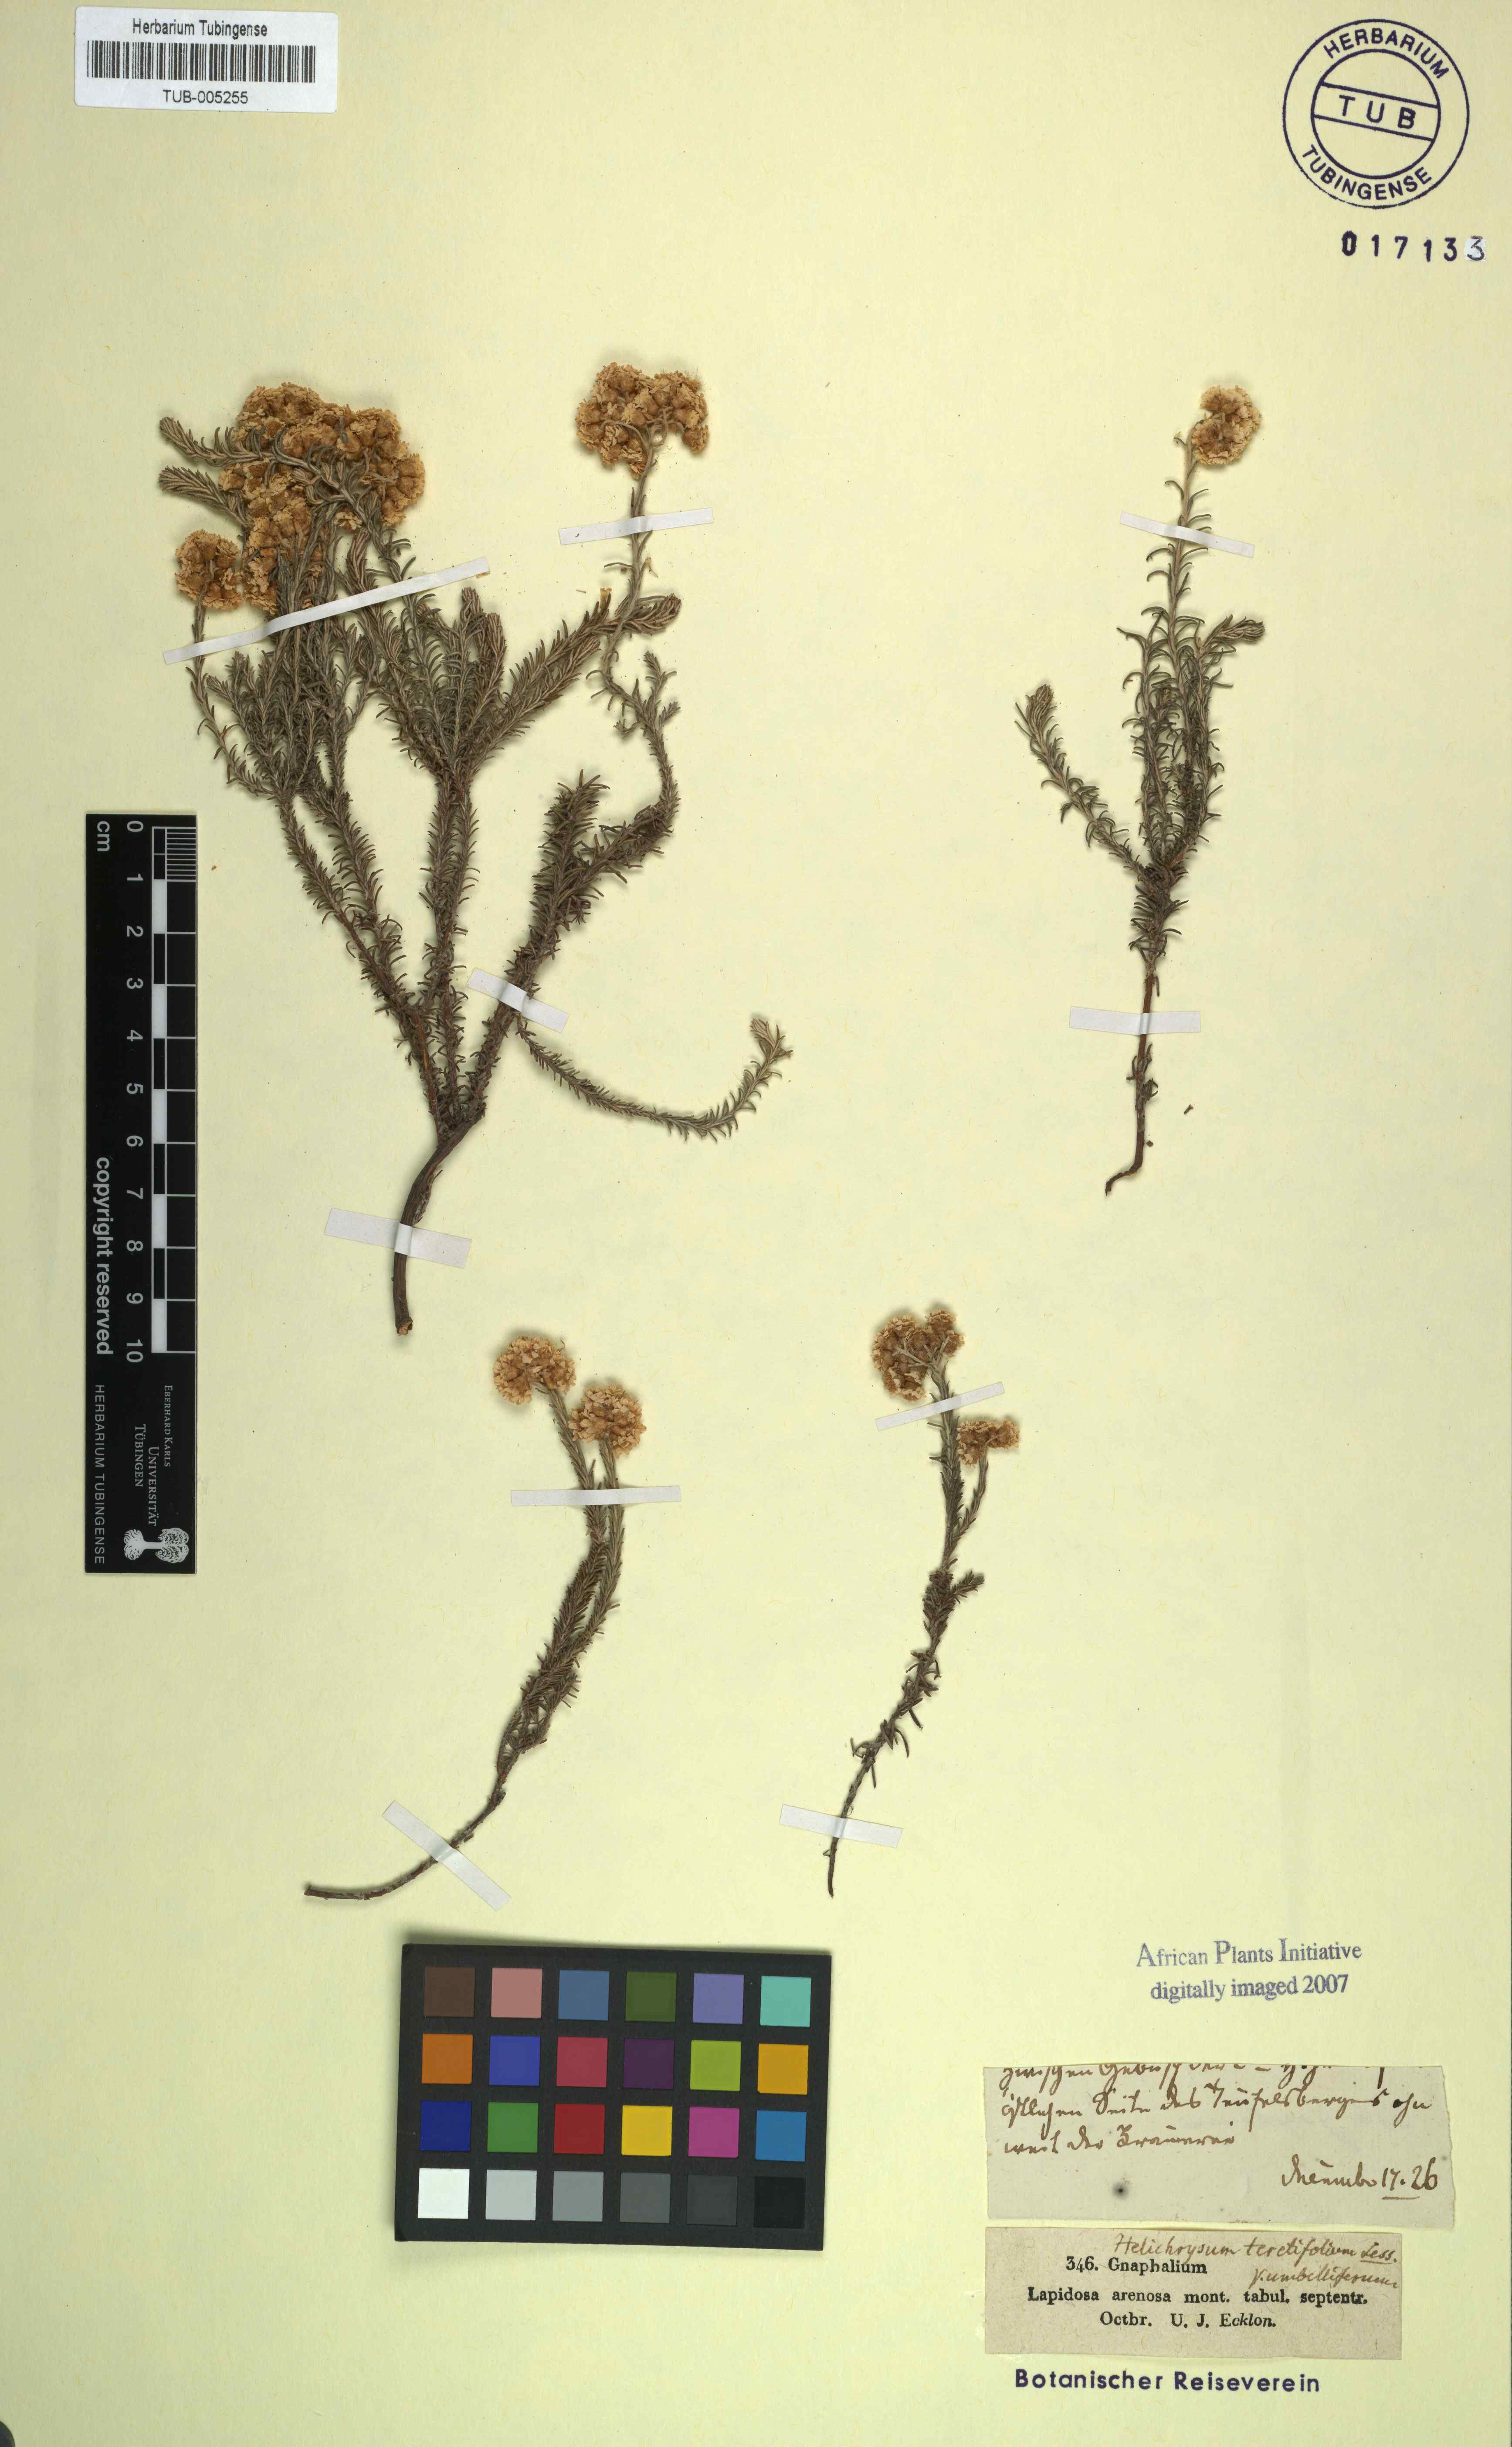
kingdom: Plantae
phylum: Tracheophyta
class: Magnoliopsida
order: Asterales
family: Asteraceae
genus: Helichrysum
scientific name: Helichrysum teretifolium
